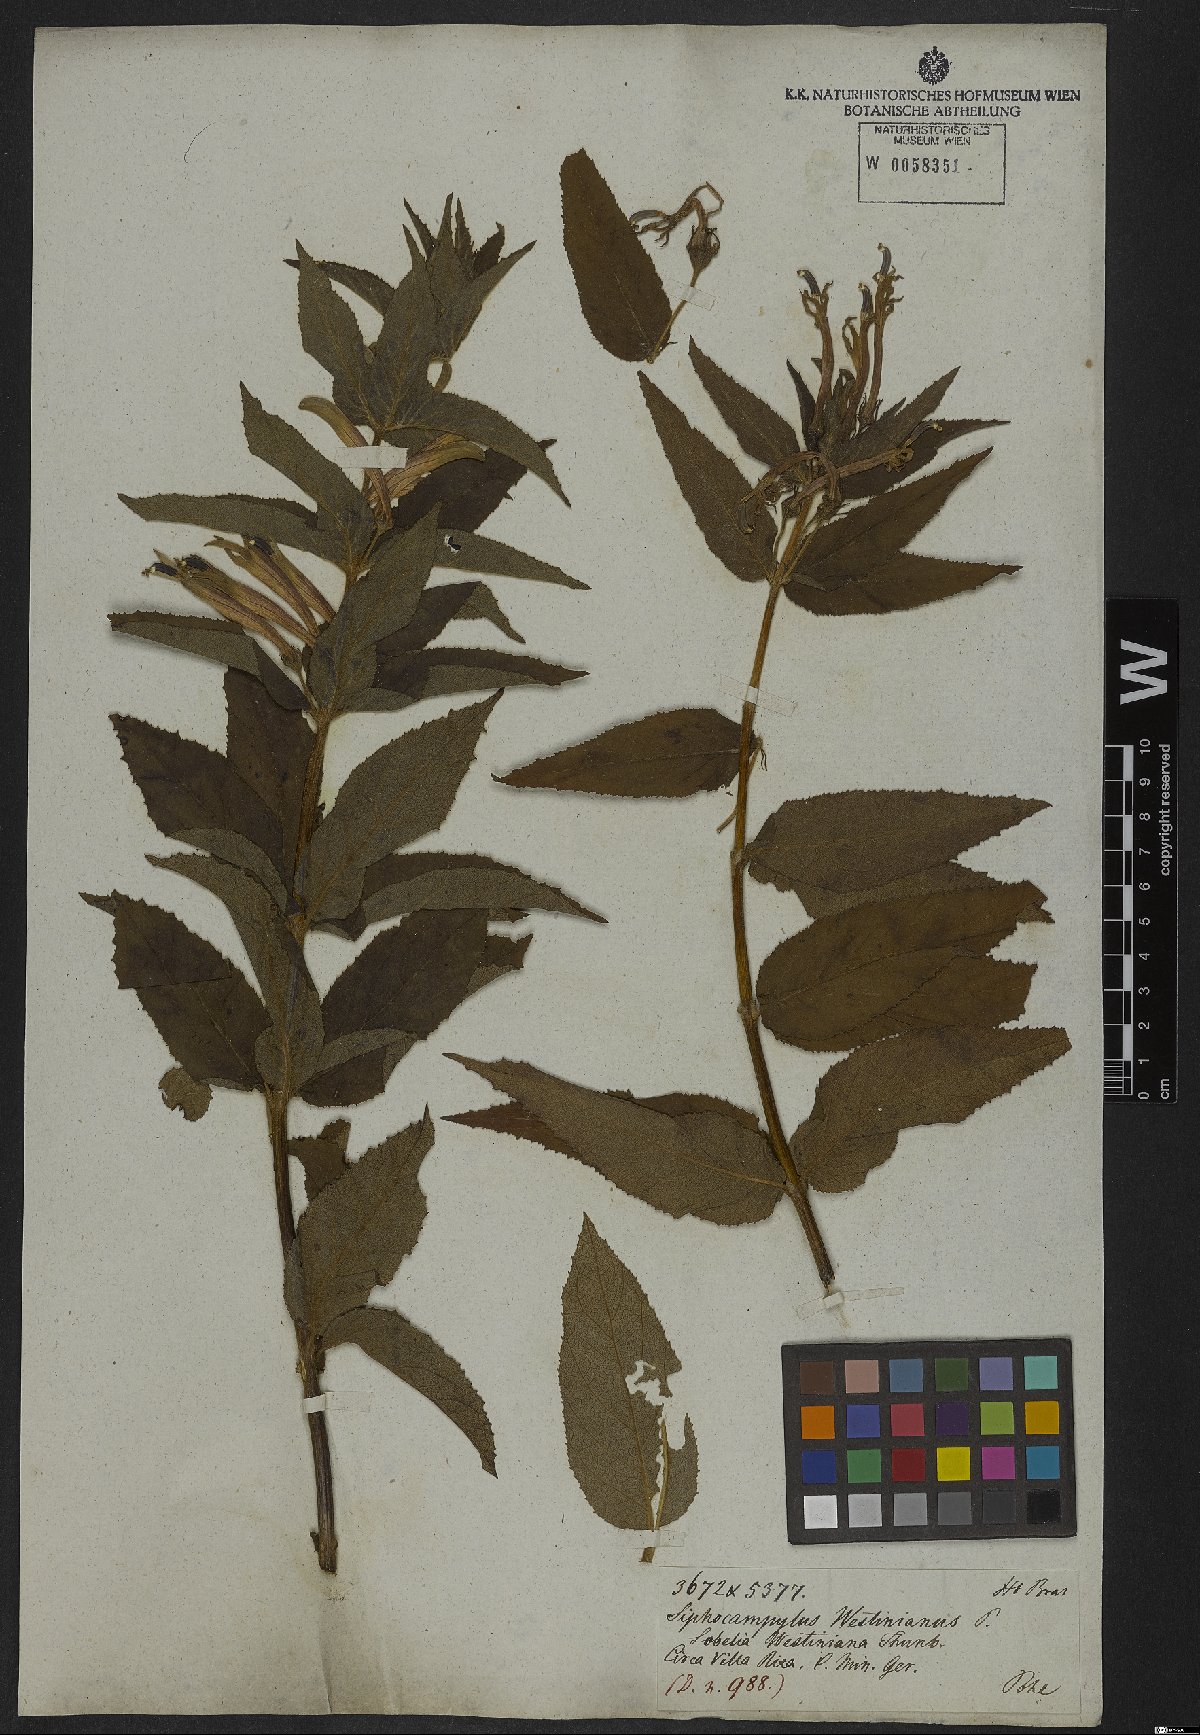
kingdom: Plantae
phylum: Tracheophyta
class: Magnoliopsida
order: Asterales
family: Campanulaceae
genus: Siphocampylus
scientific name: Siphocampylus westinianus
